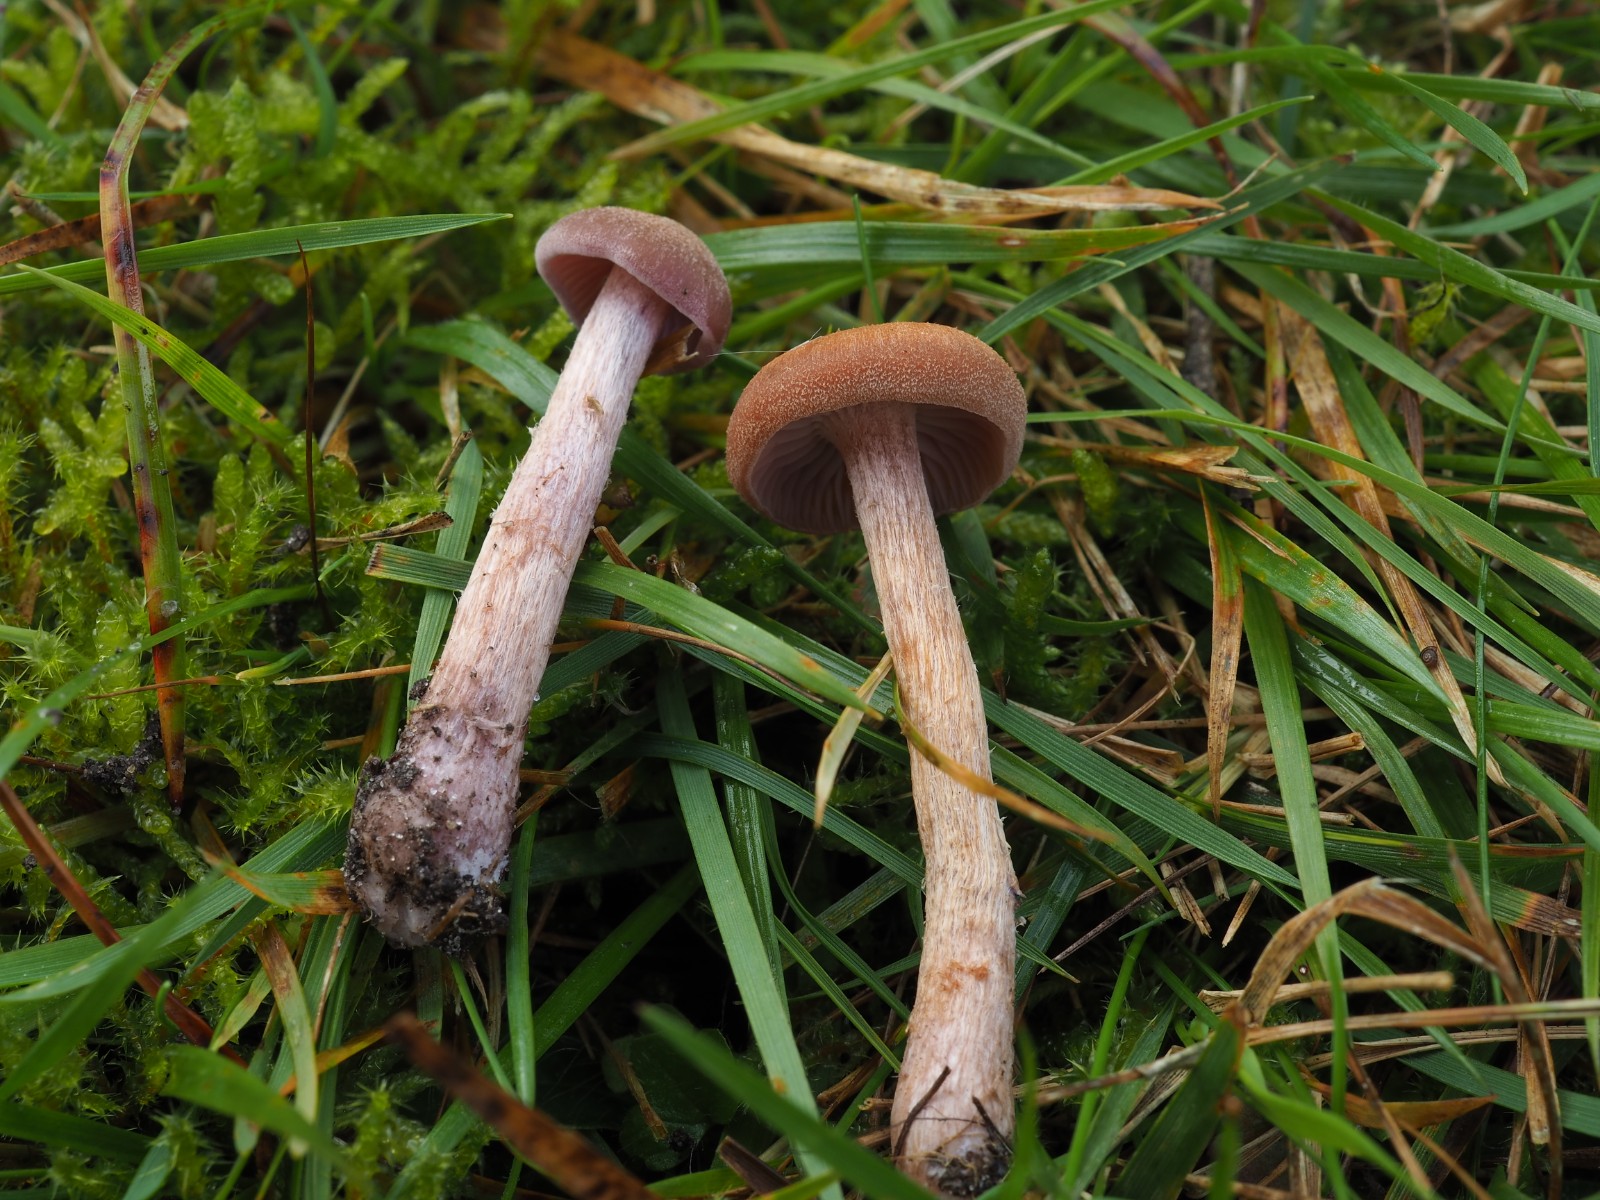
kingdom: Fungi
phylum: Basidiomycota
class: Agaricomycetes
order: Agaricales
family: Hydnangiaceae
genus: Laccaria
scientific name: Laccaria bicolor
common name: tvefarvet ametysthat
